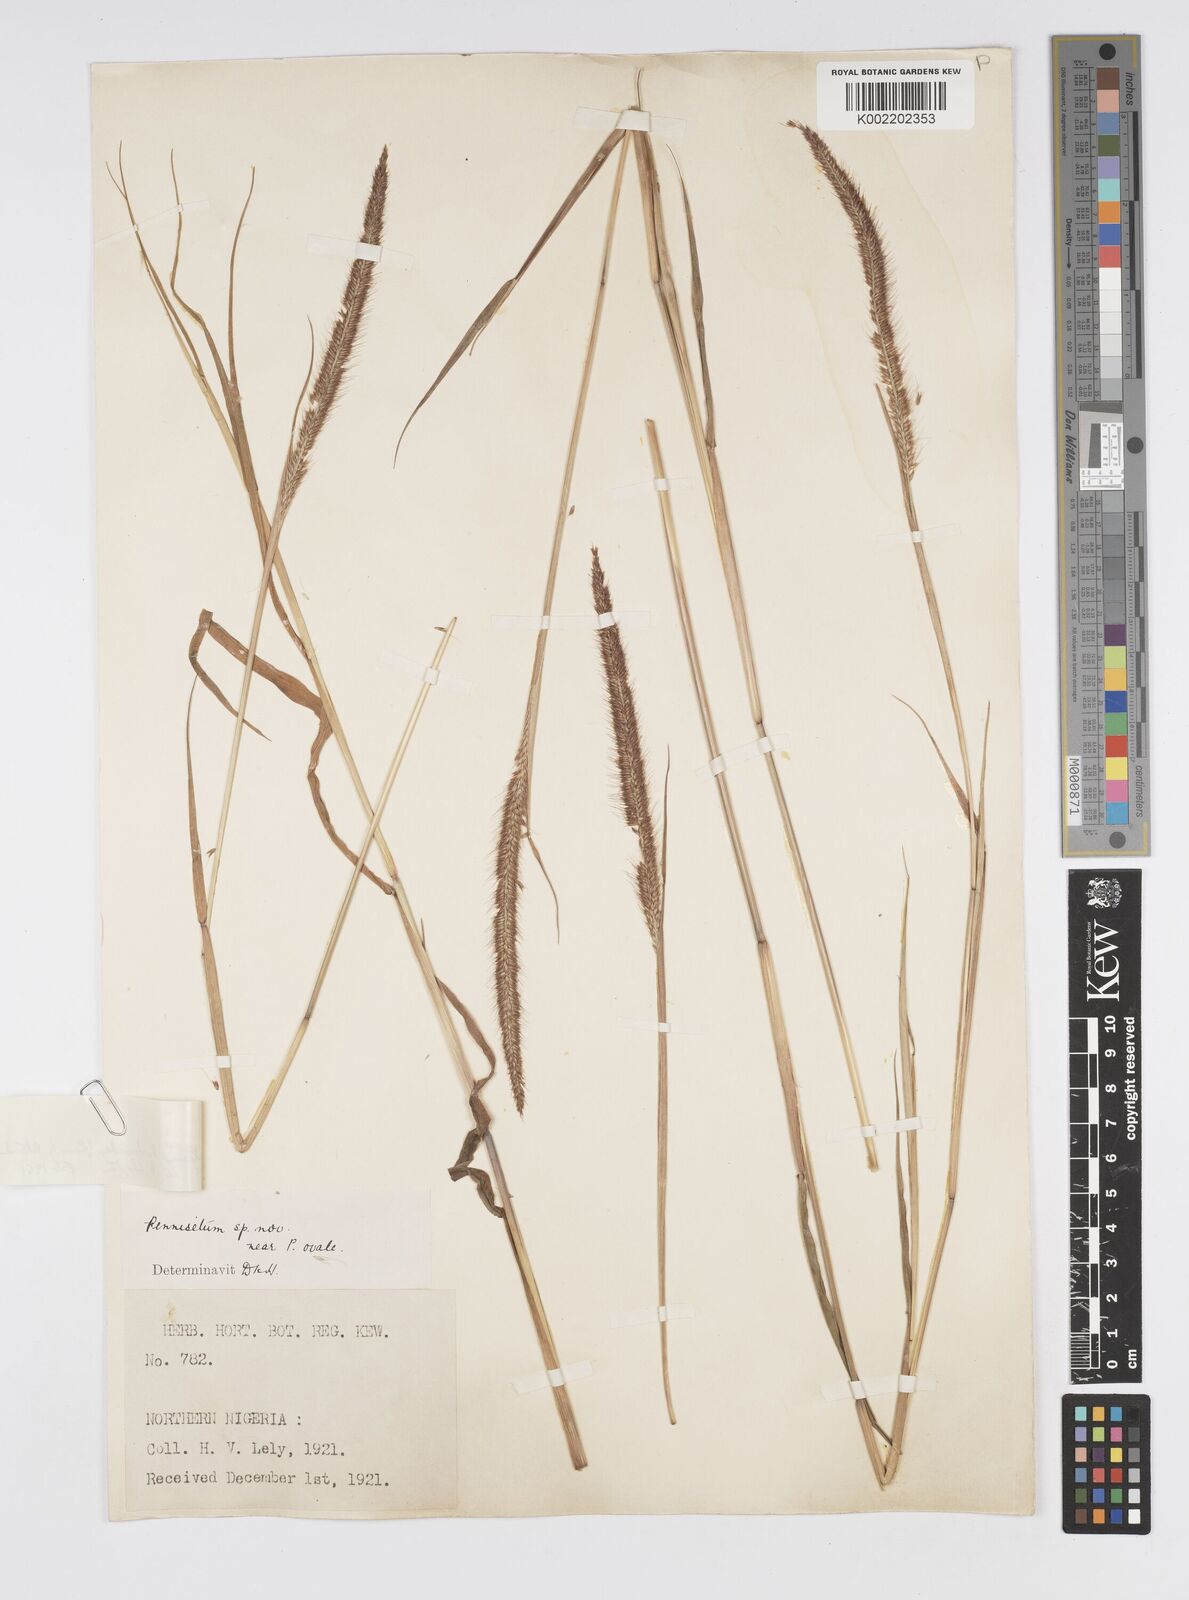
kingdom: Plantae
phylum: Tracheophyta
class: Liliopsida
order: Poales
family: Poaceae
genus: Cenchrus
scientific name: Cenchrus Pennisetum spec
